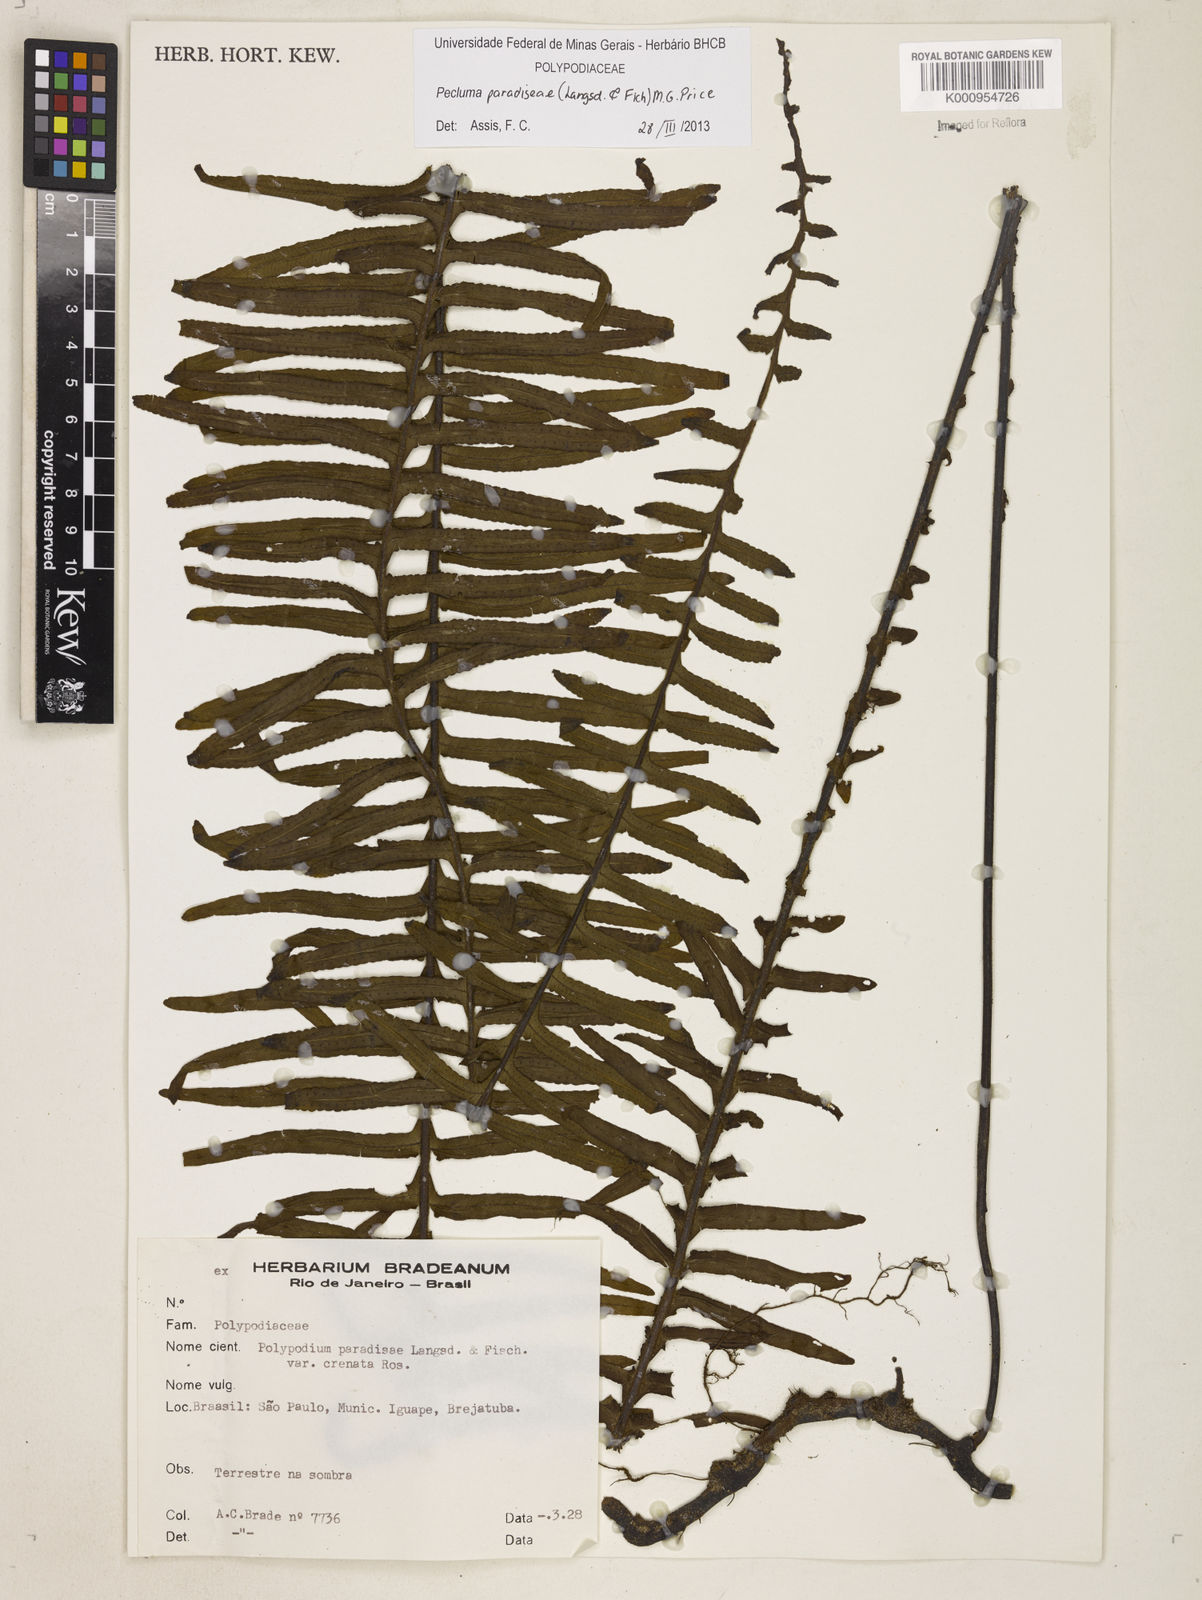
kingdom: Plantae
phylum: Tracheophyta
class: Polypodiopsida
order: Polypodiales
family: Polypodiaceae
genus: Pecluma
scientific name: Pecluma paradiseae
